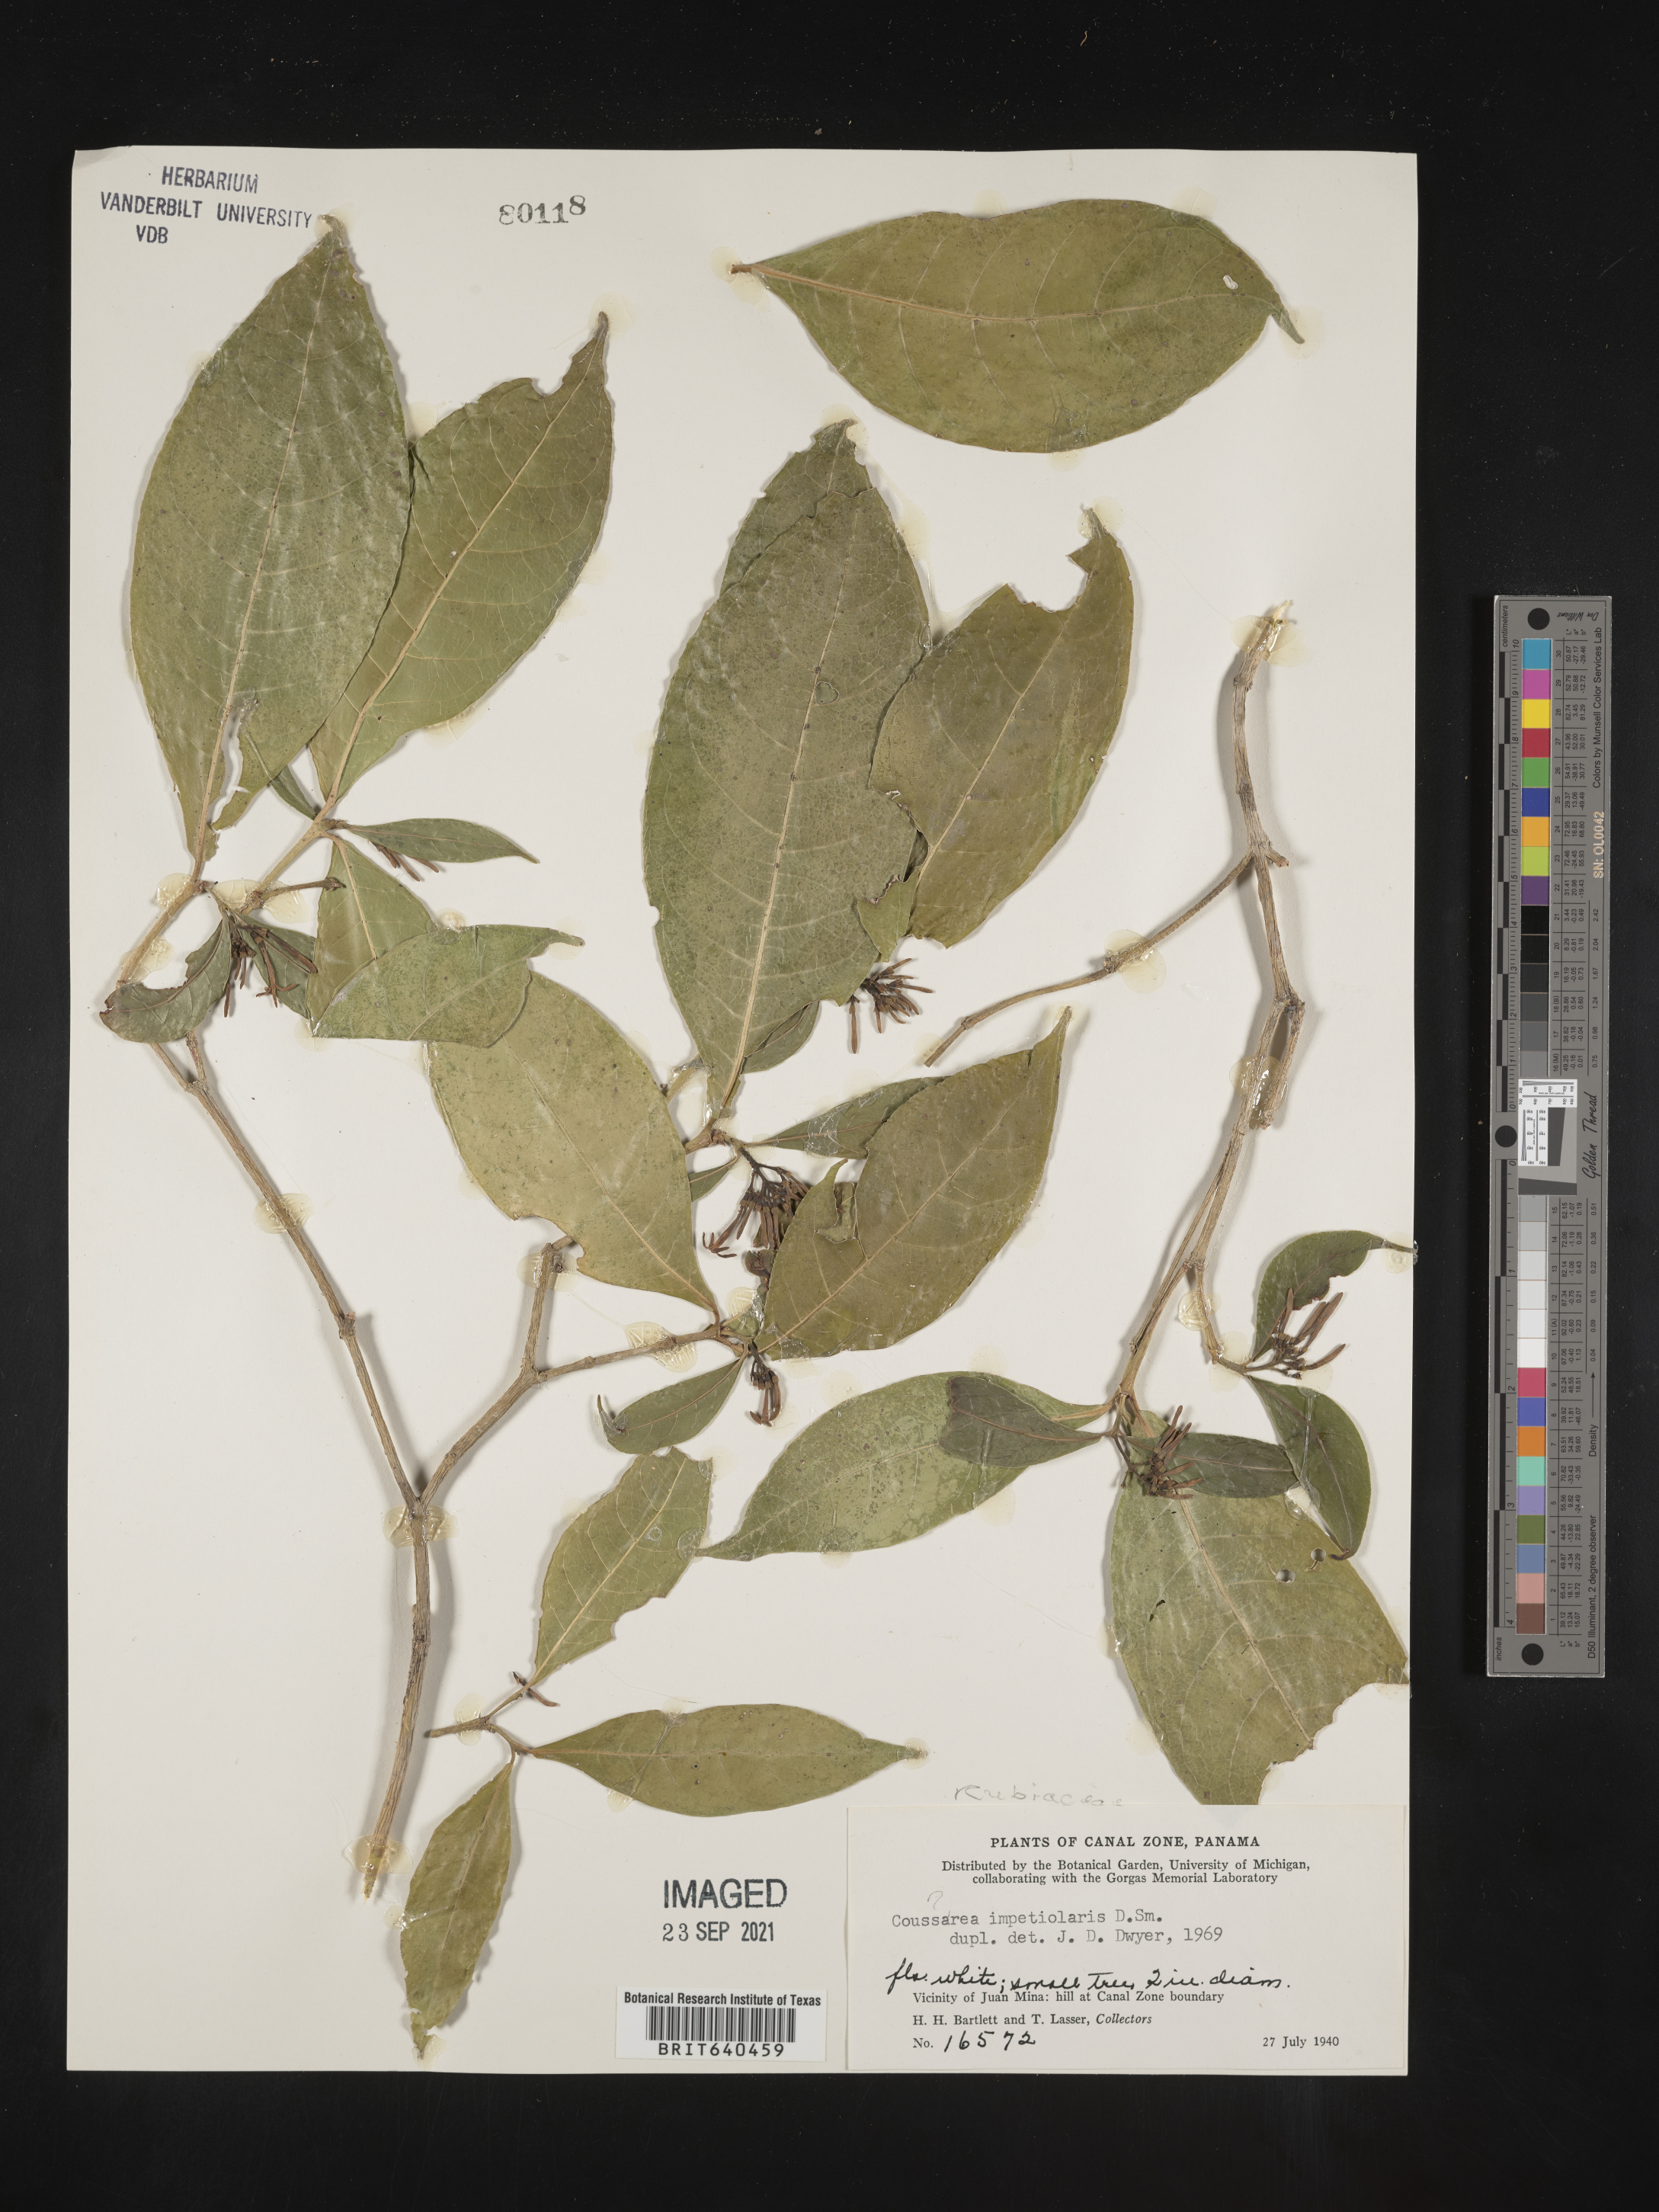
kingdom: Plantae
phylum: Tracheophyta
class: Magnoliopsida
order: Gentianales
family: Rubiaceae
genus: Coussarea
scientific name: Coussarea
